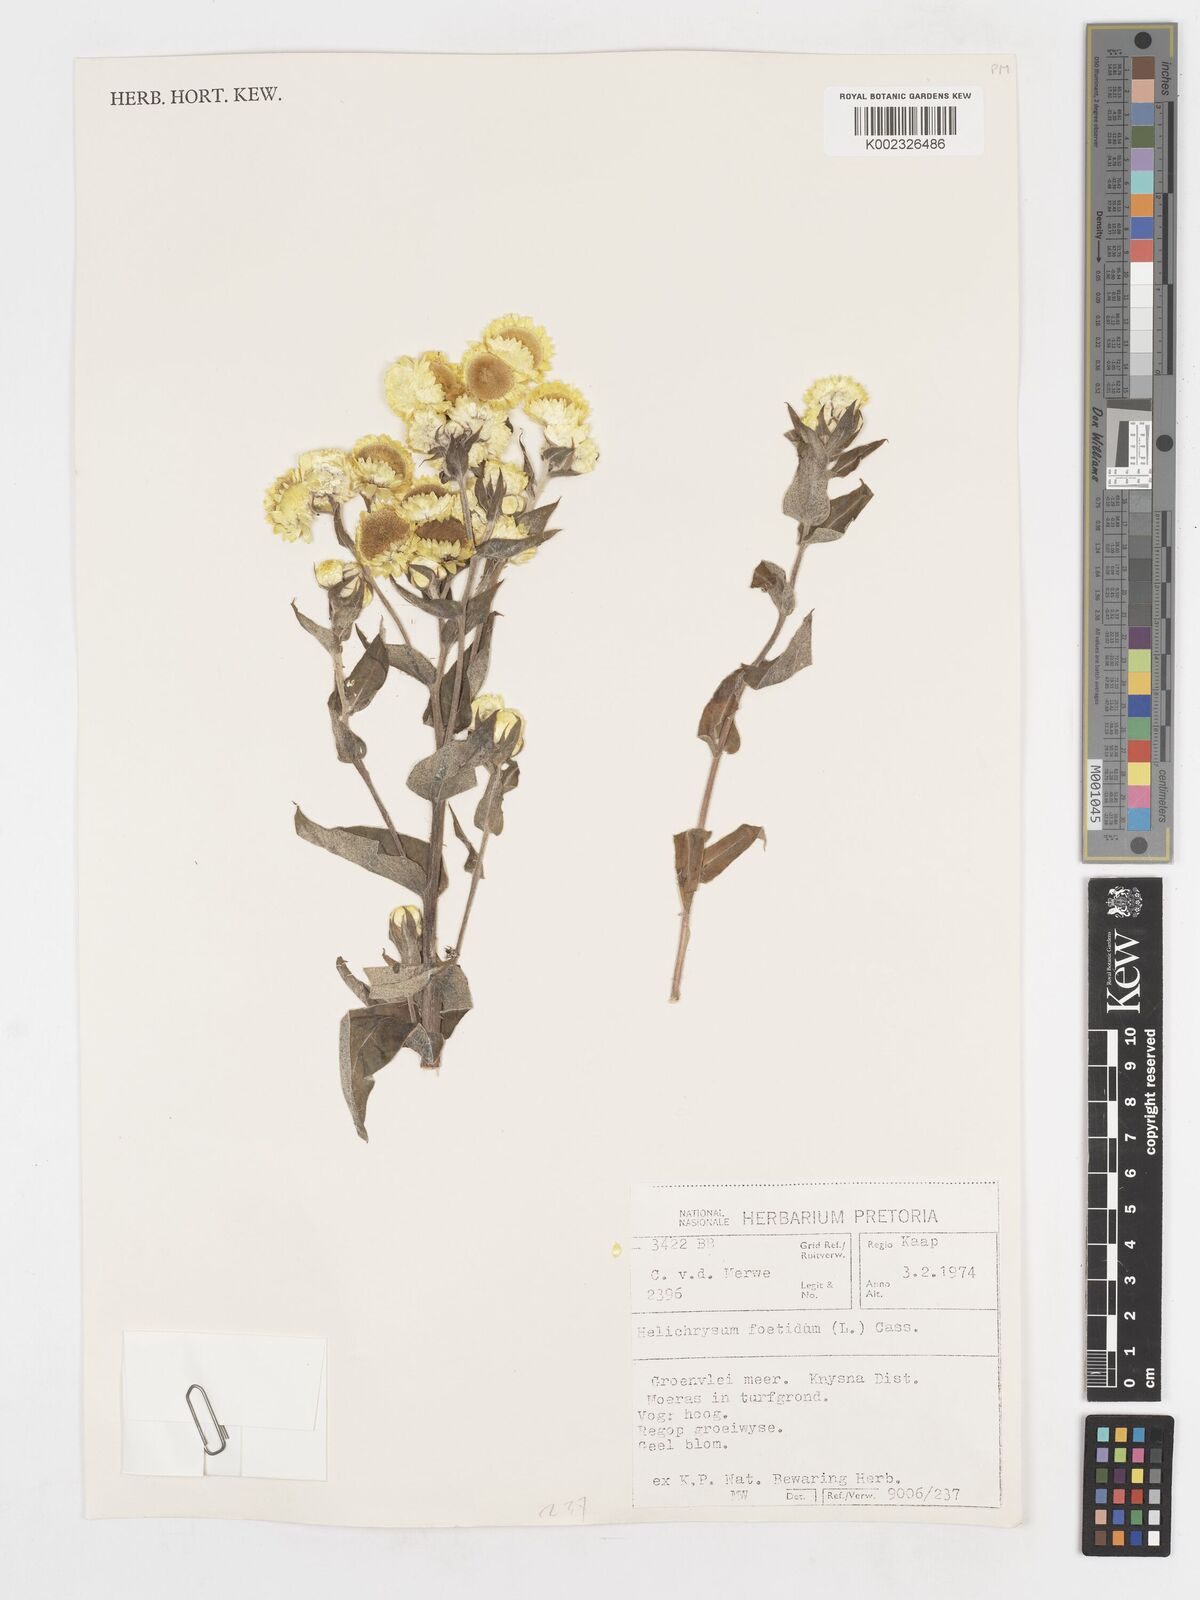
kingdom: Plantae
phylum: Tracheophyta
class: Magnoliopsida
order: Asterales
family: Asteraceae
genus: Helichrysum
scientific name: Helichrysum foetidum
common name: Stinking everlasting
